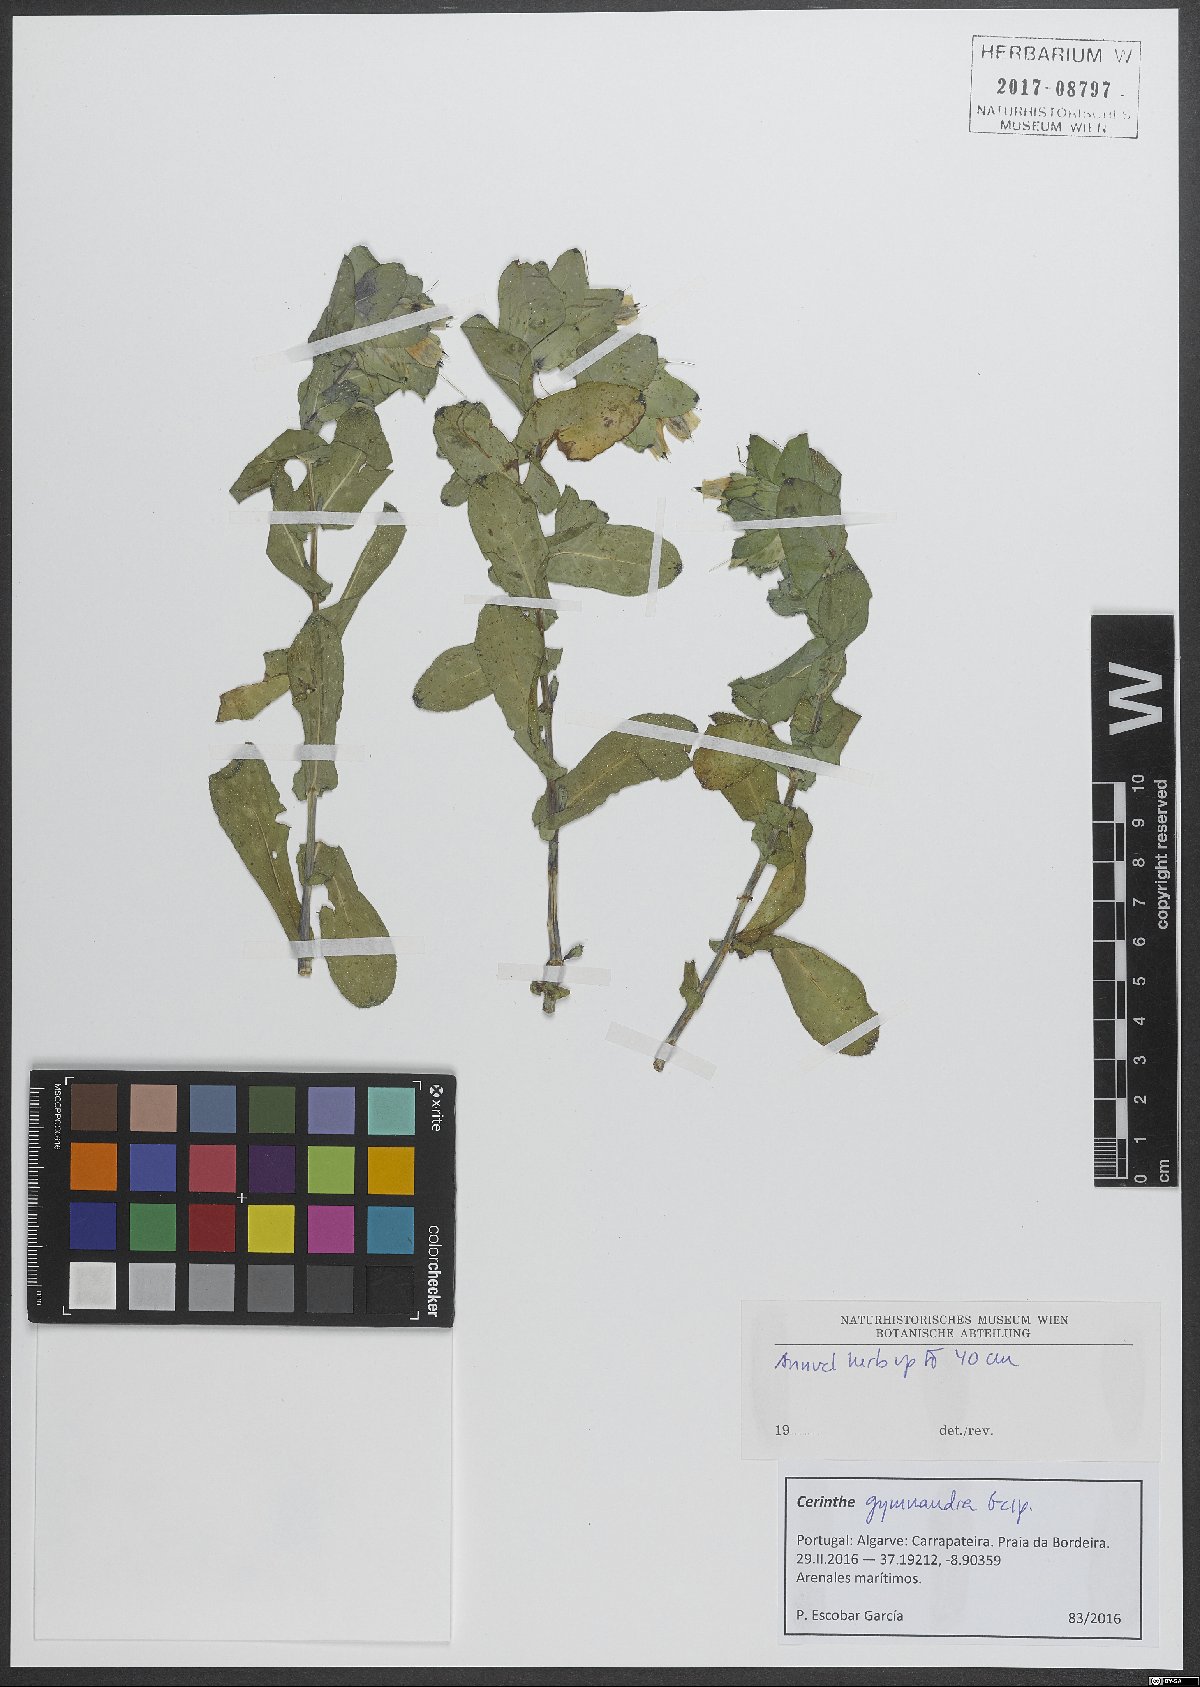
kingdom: Plantae
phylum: Tracheophyta
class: Magnoliopsida
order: Boraginales
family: Boraginaceae
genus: Cerinthe
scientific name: Cerinthe major
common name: Greater honeywort
